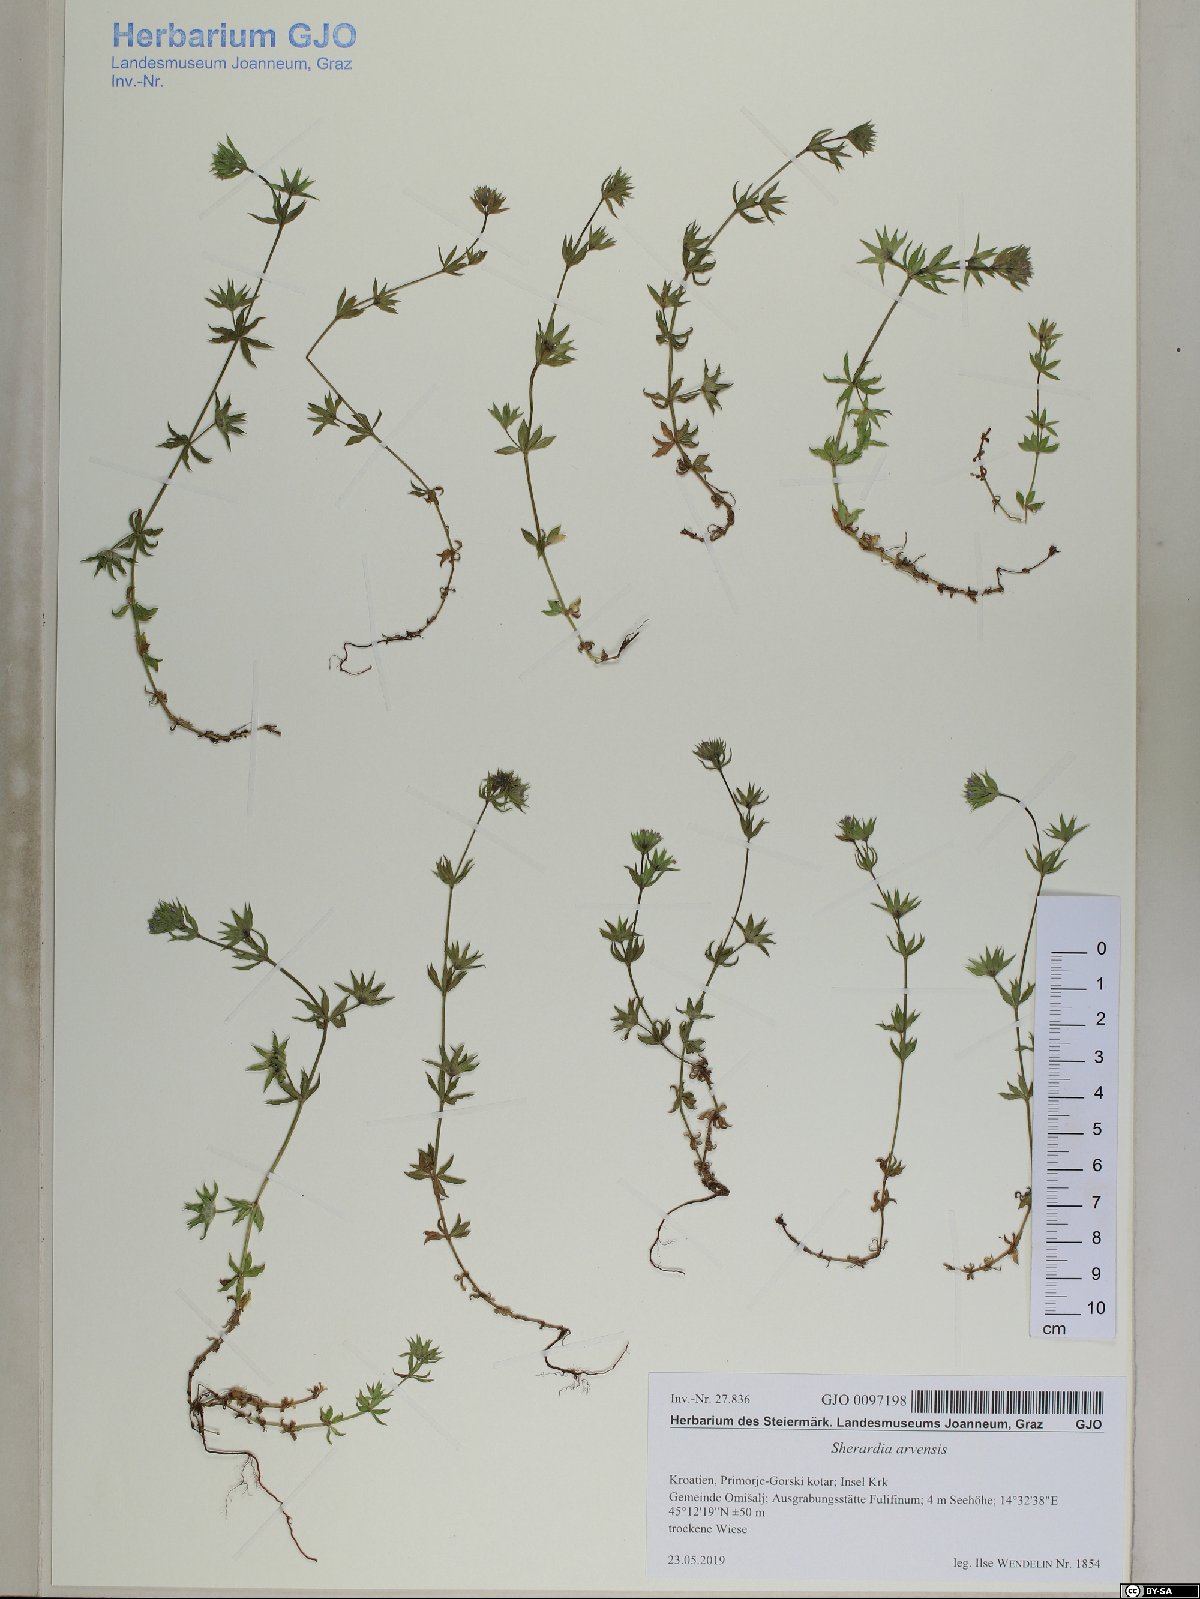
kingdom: Plantae
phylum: Tracheophyta
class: Magnoliopsida
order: Gentianales
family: Rubiaceae
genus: Sherardia
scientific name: Sherardia arvensis
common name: Field madder
